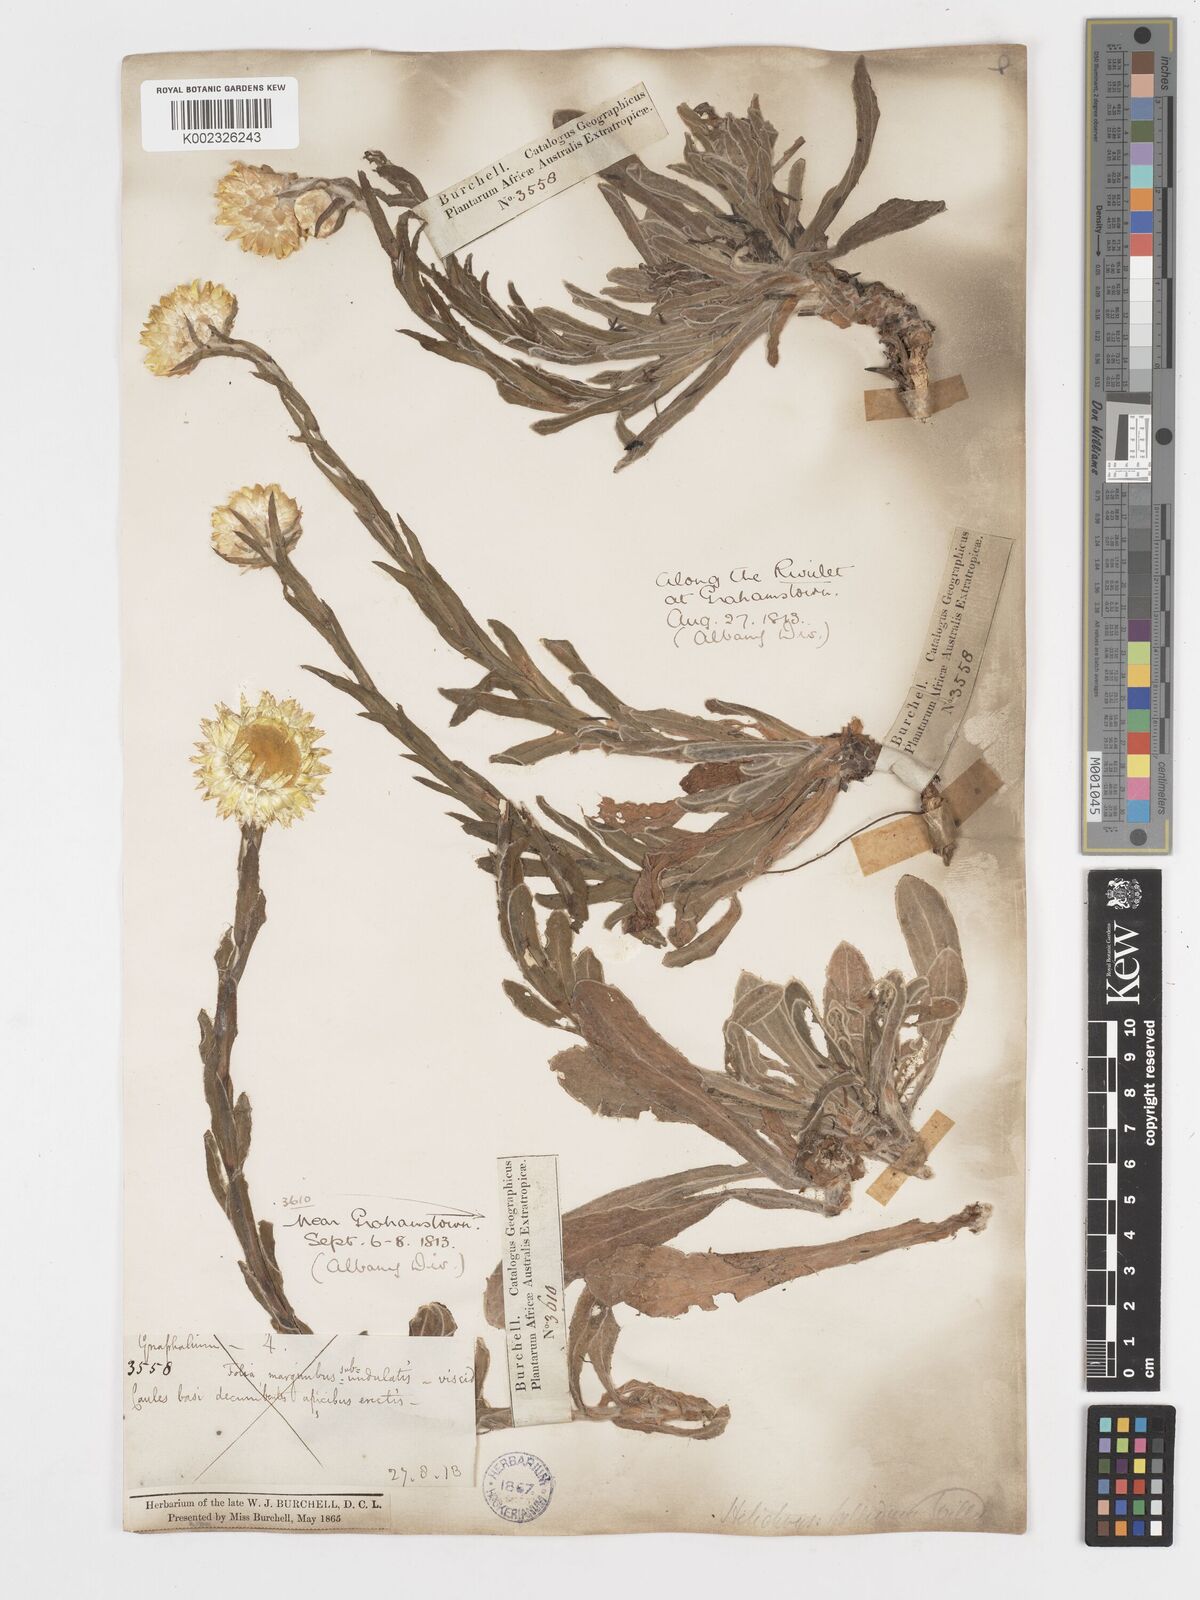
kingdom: Plantae
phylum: Tracheophyta
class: Magnoliopsida
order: Asterales
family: Asteraceae
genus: Helichrysum
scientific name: Helichrysum aureum
